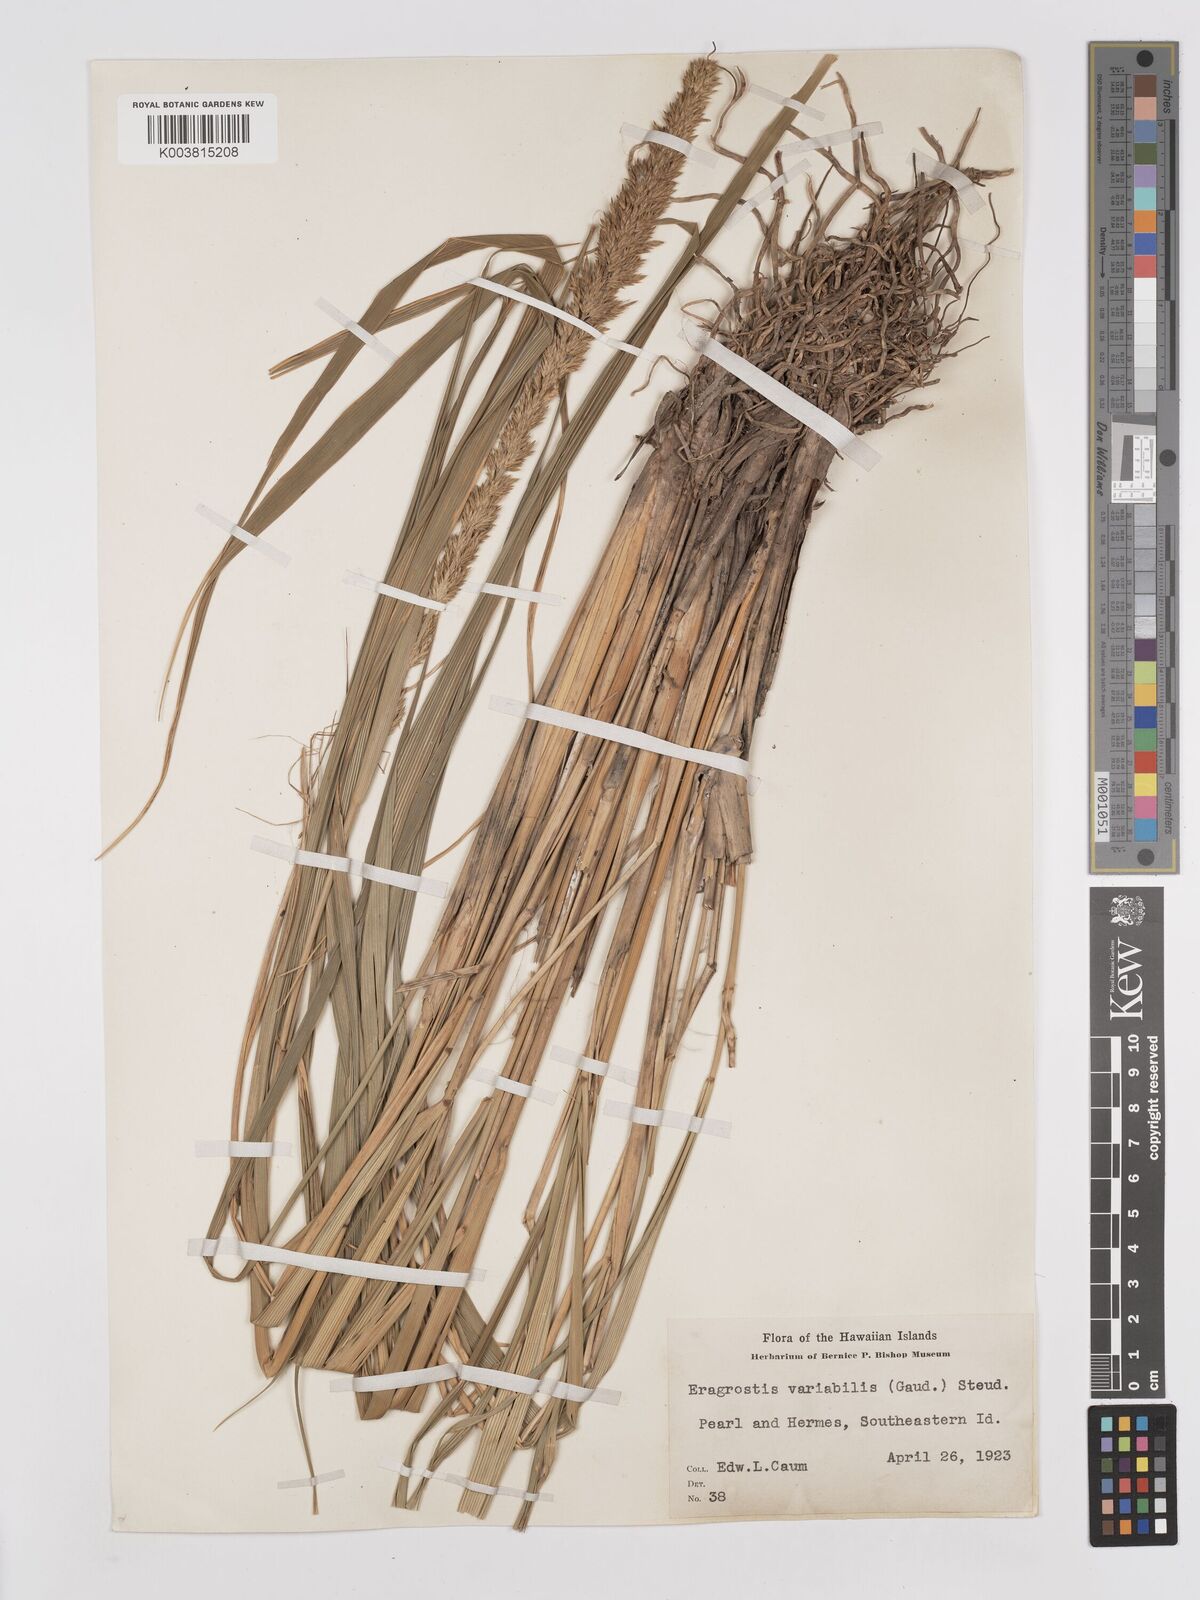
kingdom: Plantae
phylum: Tracheophyta
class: Liliopsida
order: Poales
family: Poaceae
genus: Eragrostis
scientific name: Eragrostis variabilis
